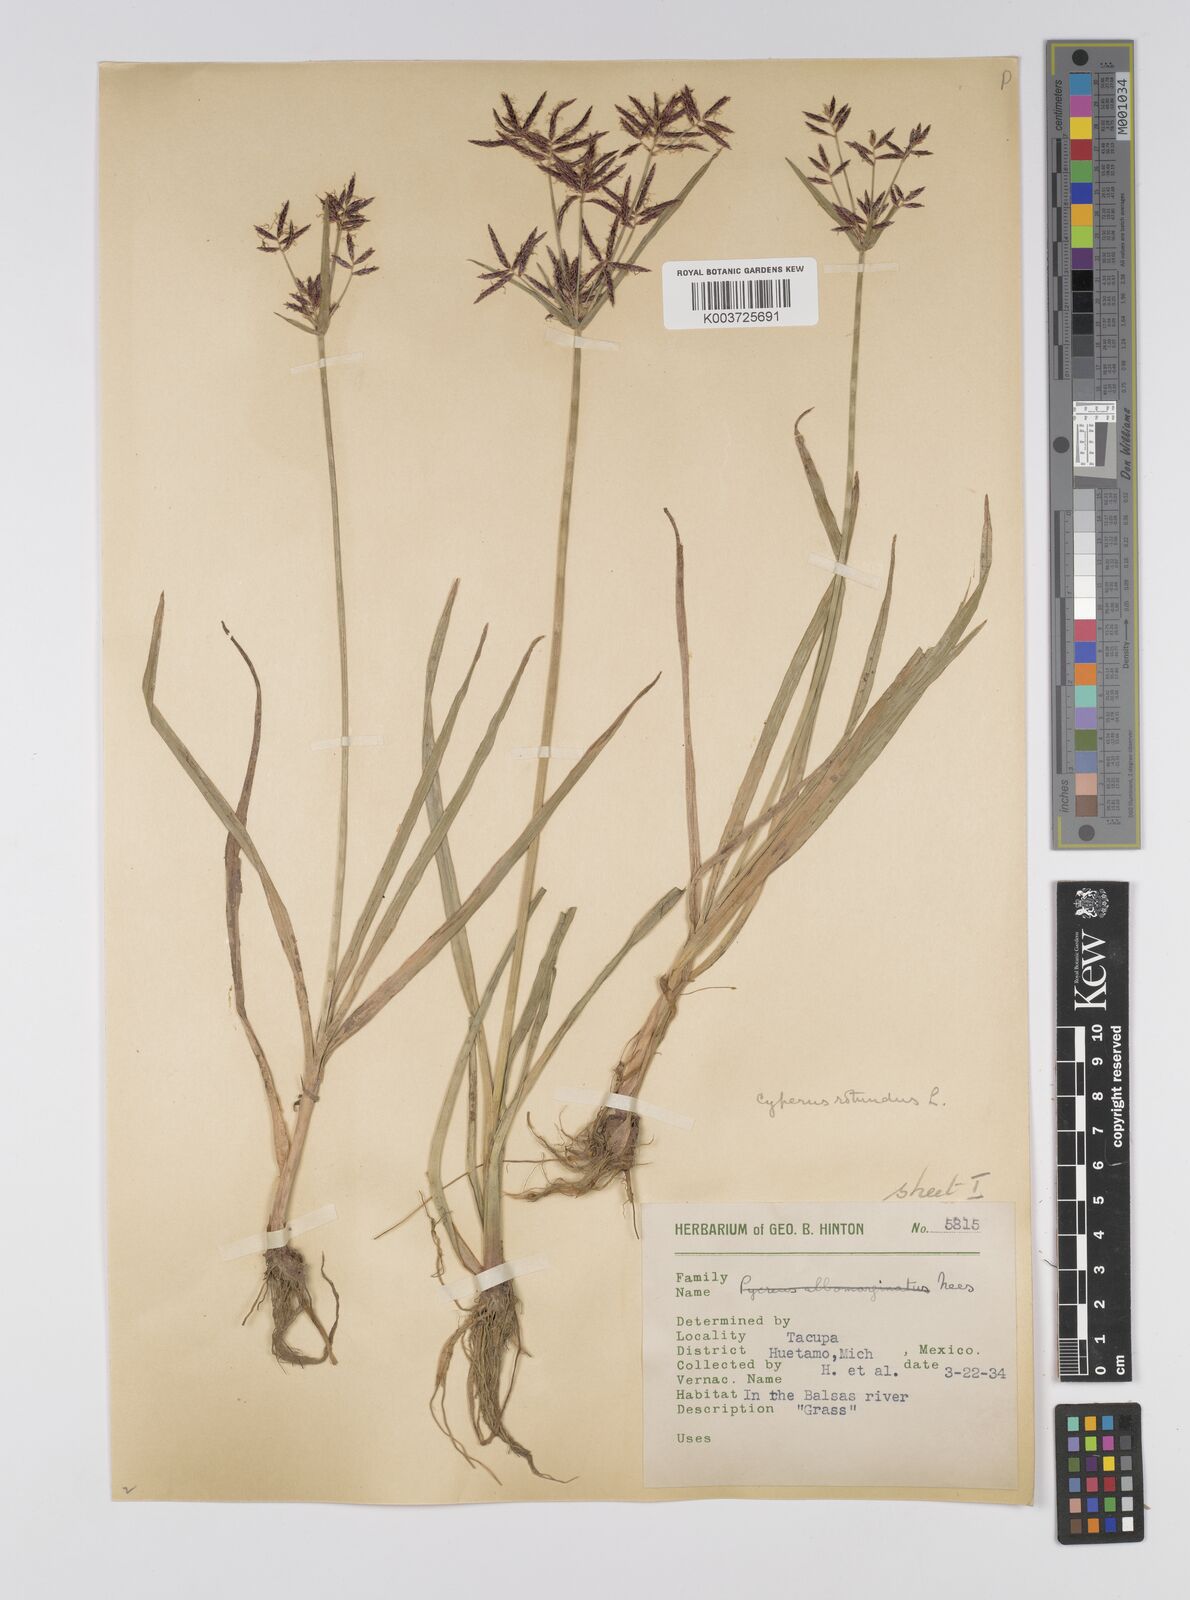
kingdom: Plantae
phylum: Tracheophyta
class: Liliopsida
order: Poales
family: Cyperaceae
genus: Cyperus
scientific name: Cyperus rotundus
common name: Nutgrass
